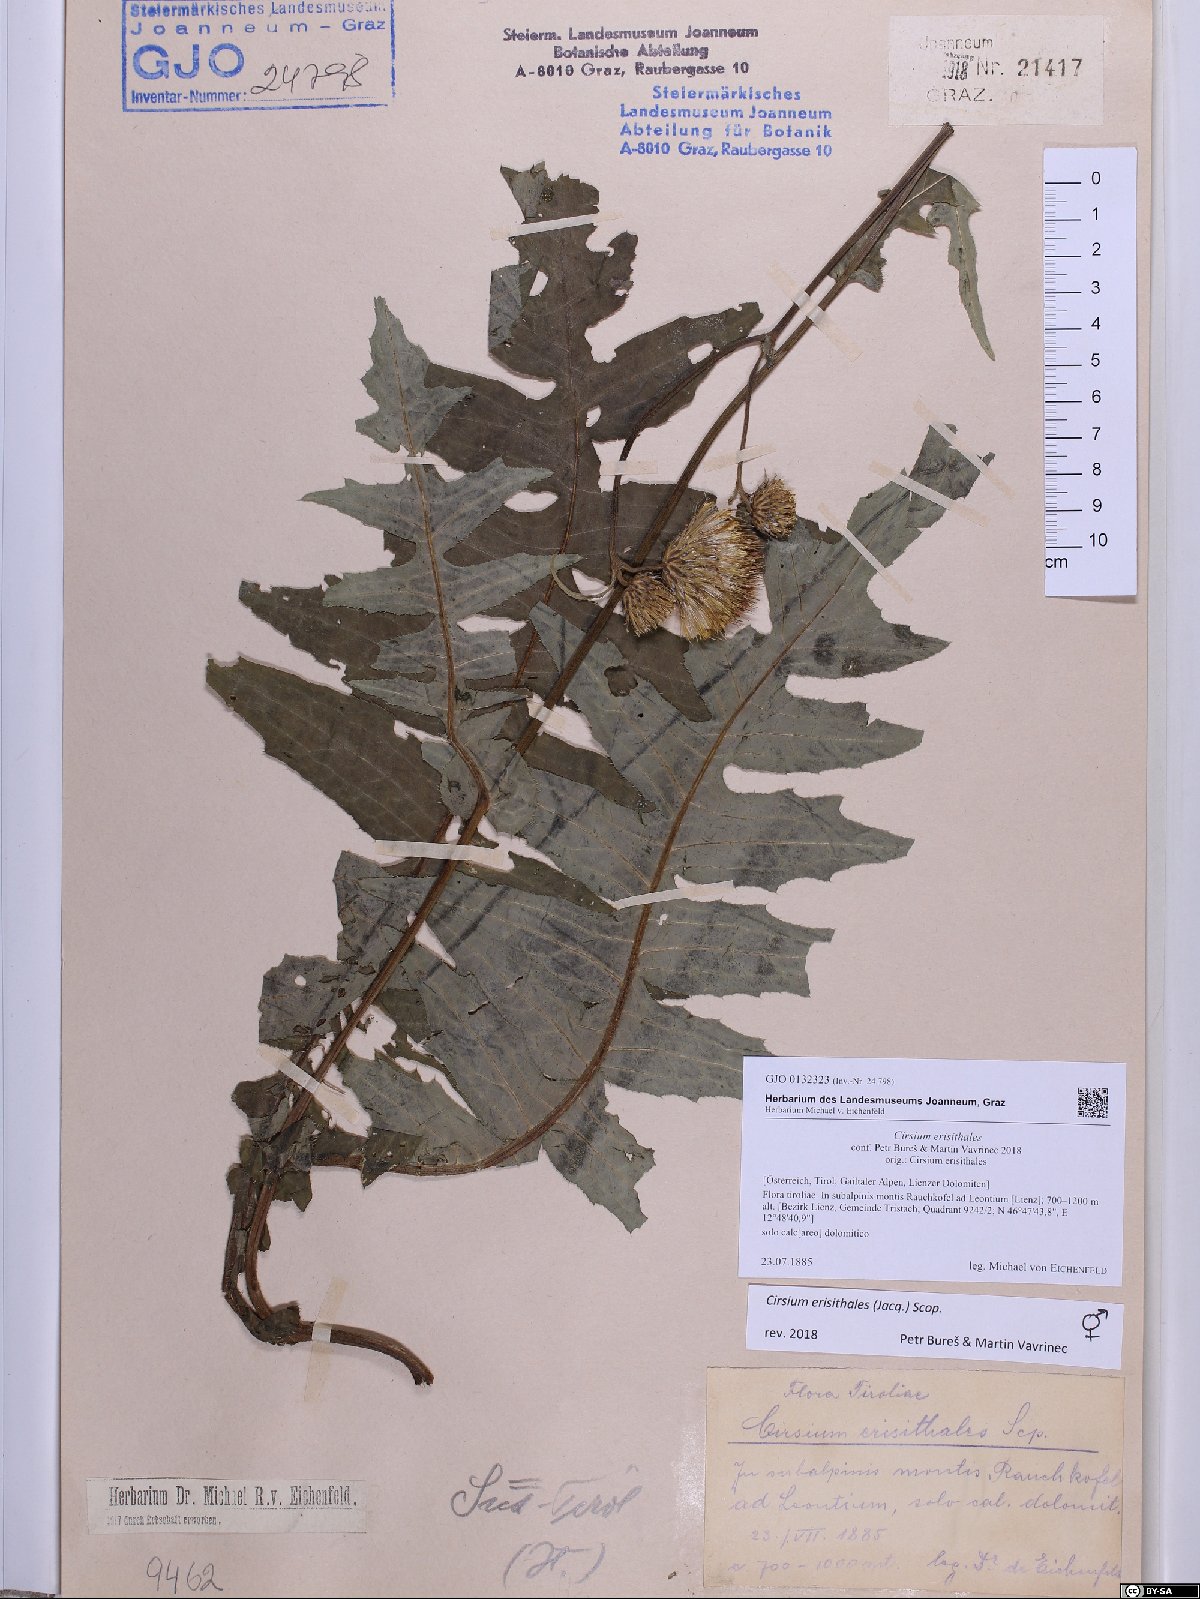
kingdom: Plantae
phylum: Tracheophyta
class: Magnoliopsida
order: Asterales
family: Asteraceae
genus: Cirsium
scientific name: Cirsium erisithales
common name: Yellow thistle
